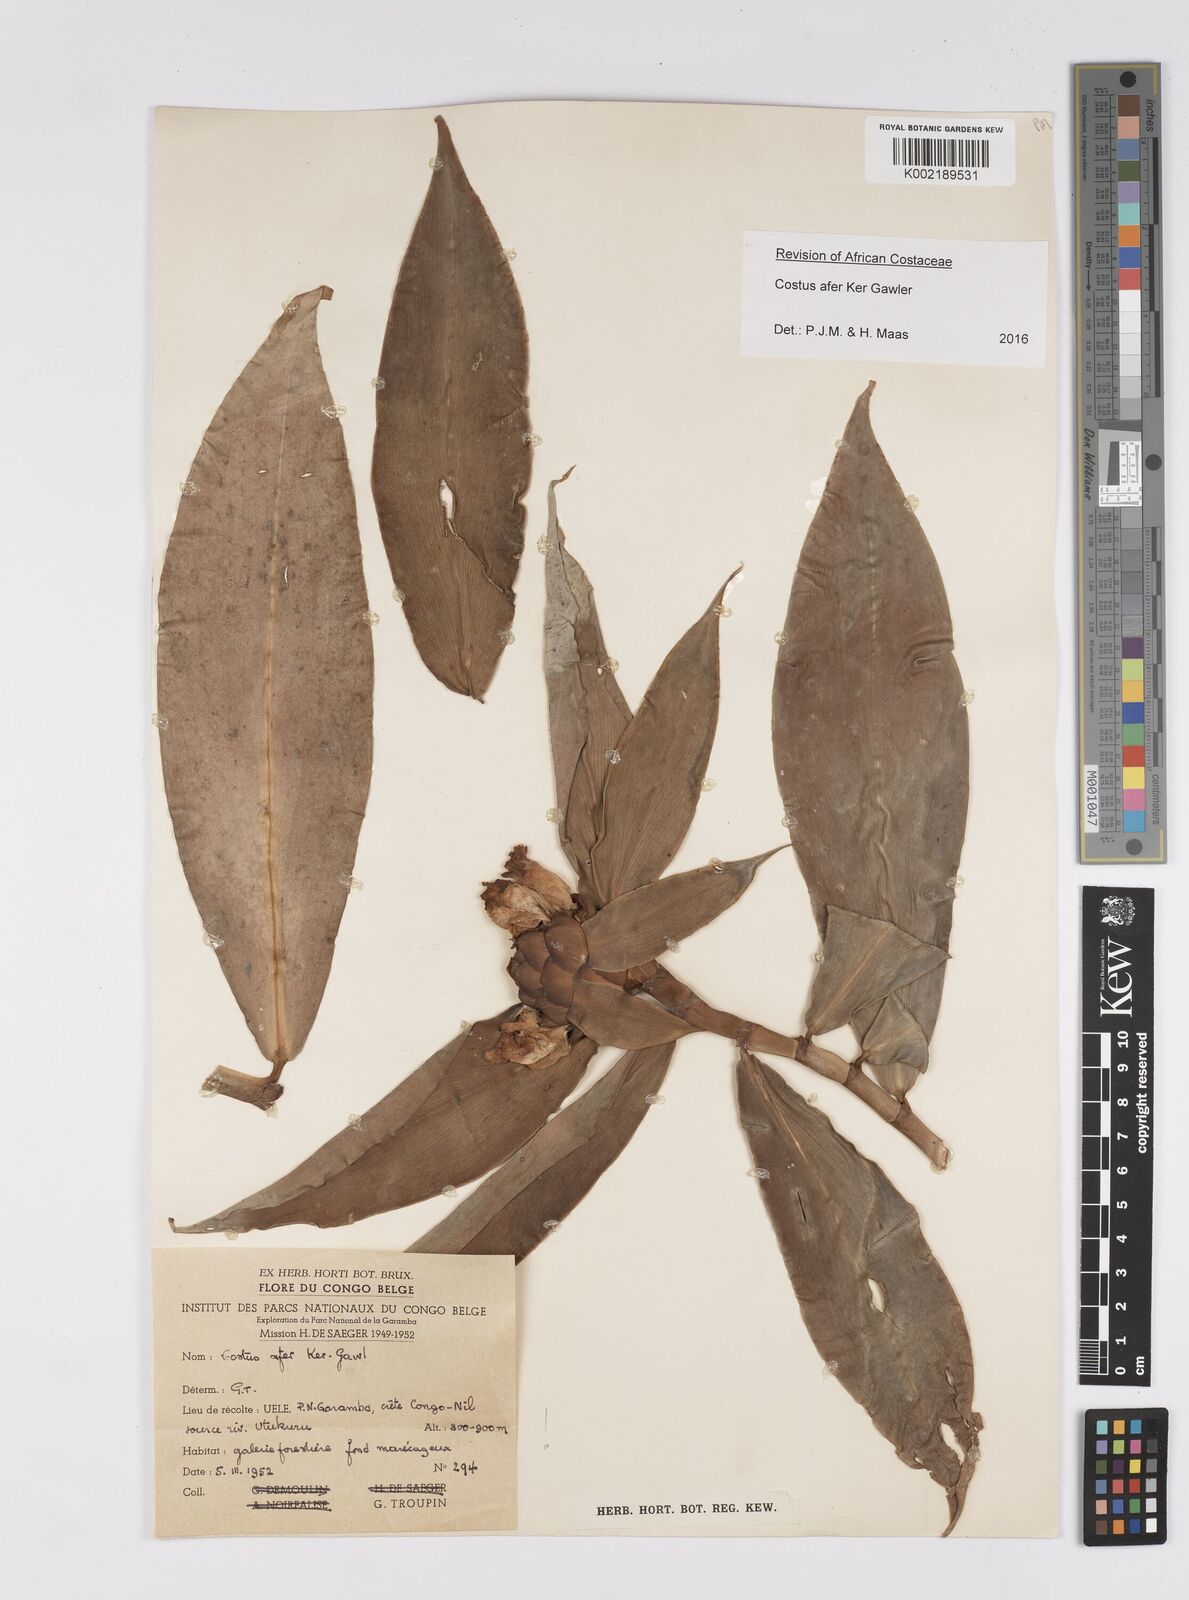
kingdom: Plantae
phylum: Tracheophyta
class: Liliopsida
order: Zingiberales
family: Costaceae
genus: Costus
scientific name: Costus afer
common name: Spiral-ginger
